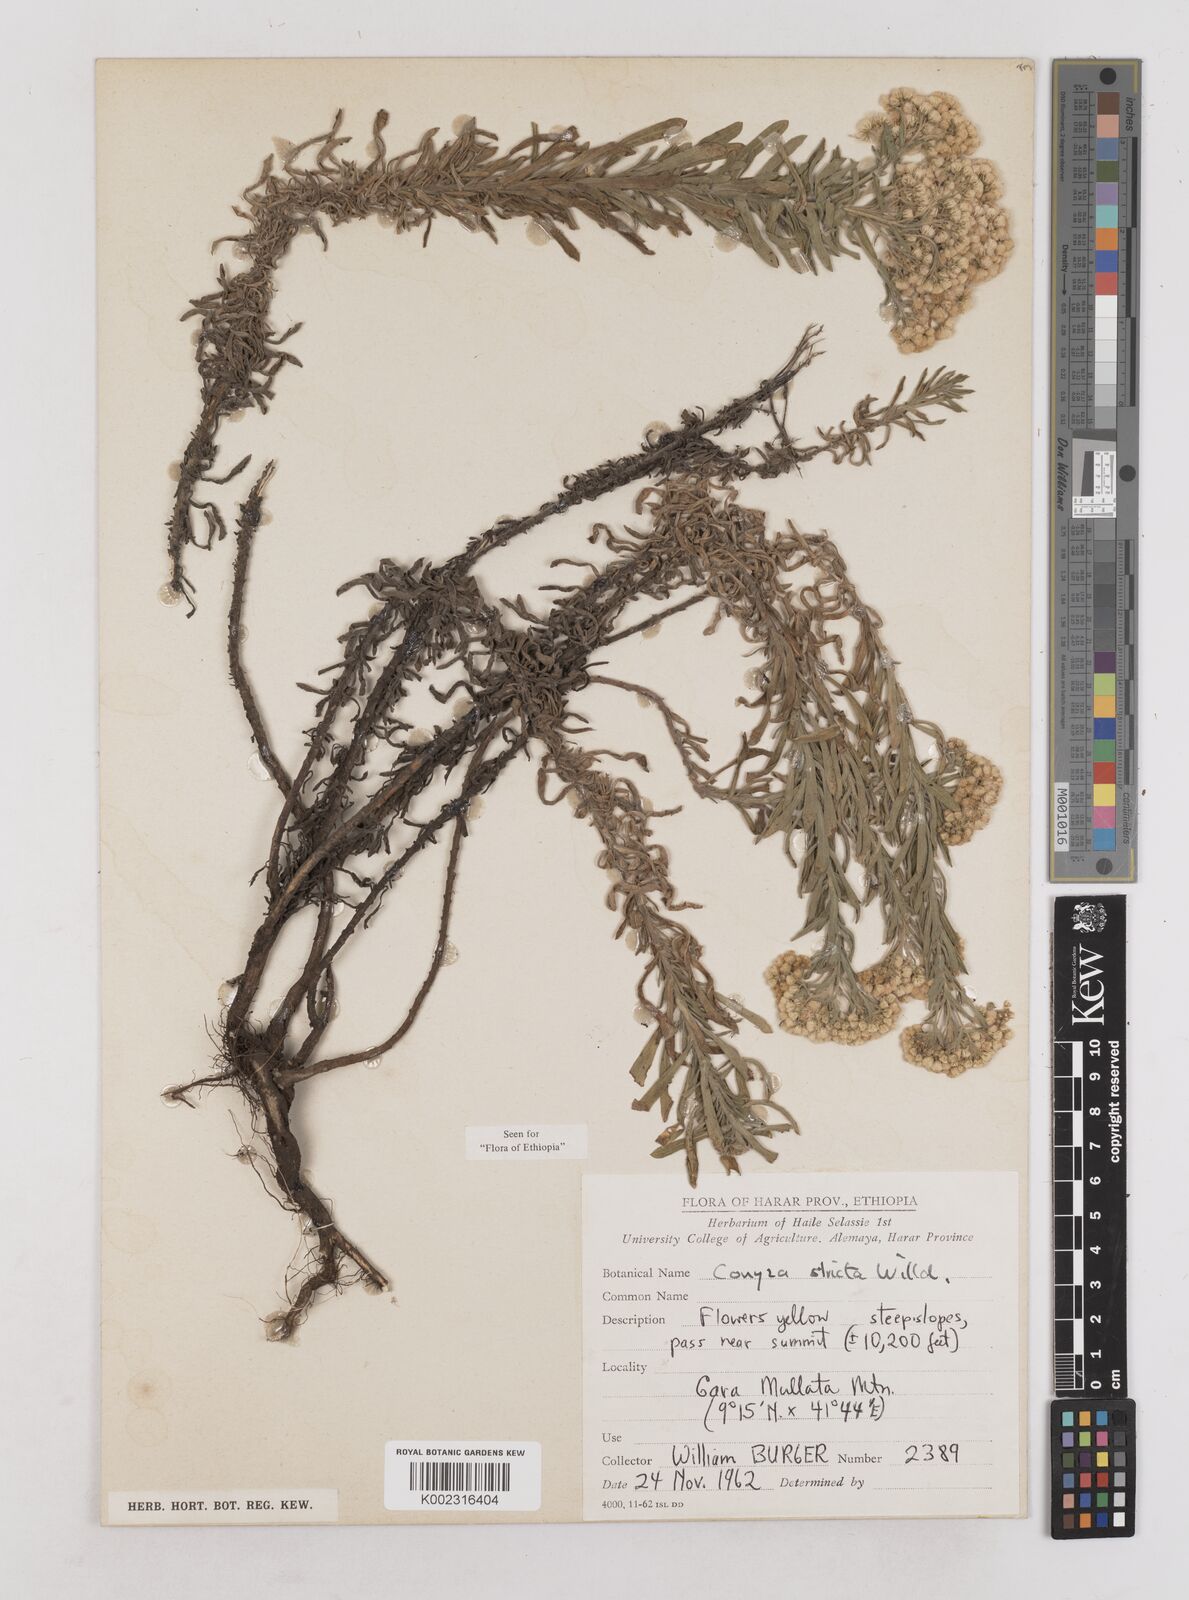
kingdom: Plantae
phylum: Tracheophyta
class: Magnoliopsida
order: Asterales
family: Asteraceae
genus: Nidorella
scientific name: Nidorella triloba
